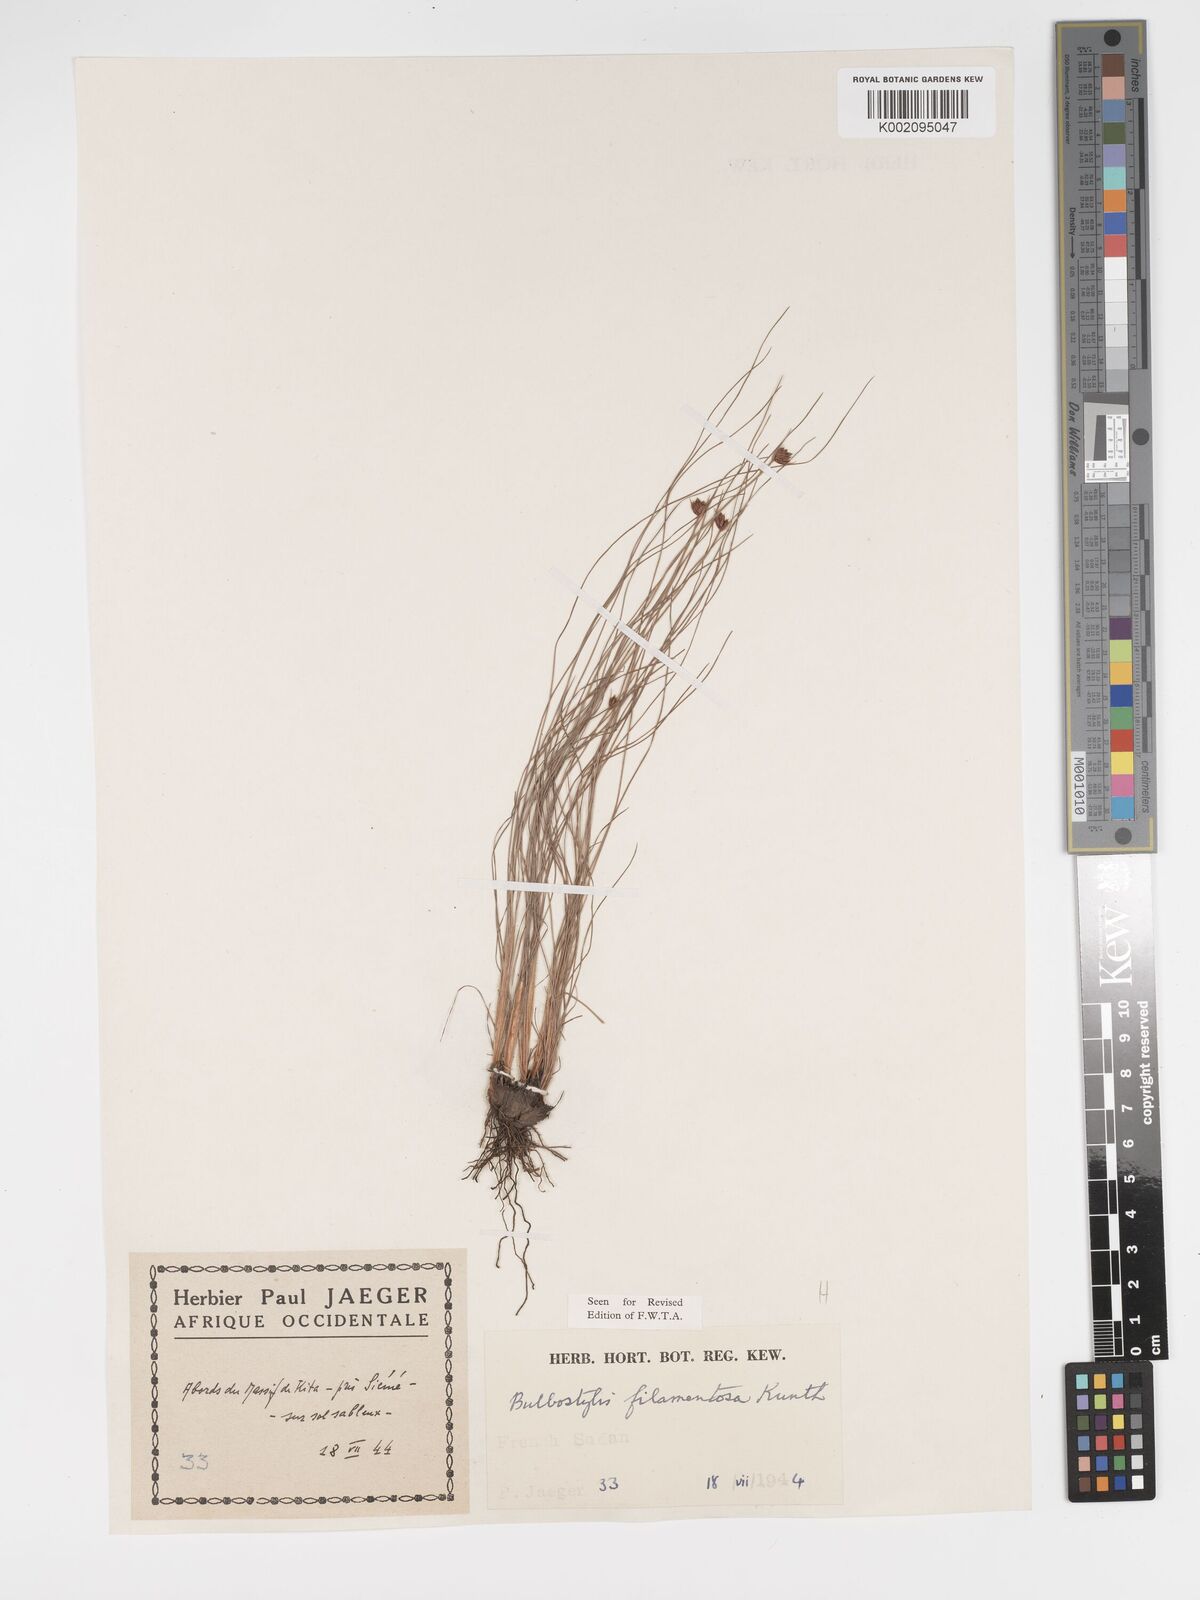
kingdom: Plantae
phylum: Tracheophyta
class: Liliopsida
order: Poales
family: Cyperaceae
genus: Bulbostylis
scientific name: Bulbostylis scabricaulis
